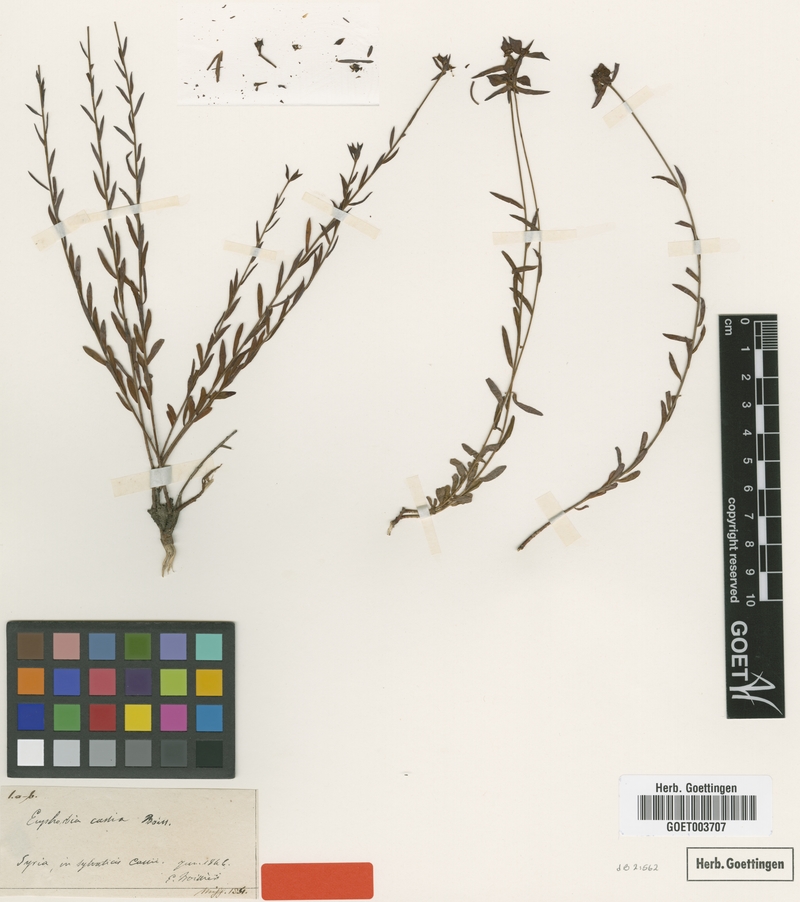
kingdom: Plantae
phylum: Tracheophyta
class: Magnoliopsida
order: Malpighiales
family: Euphorbiaceae
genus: Euphorbia
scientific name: Euphorbia cassia
